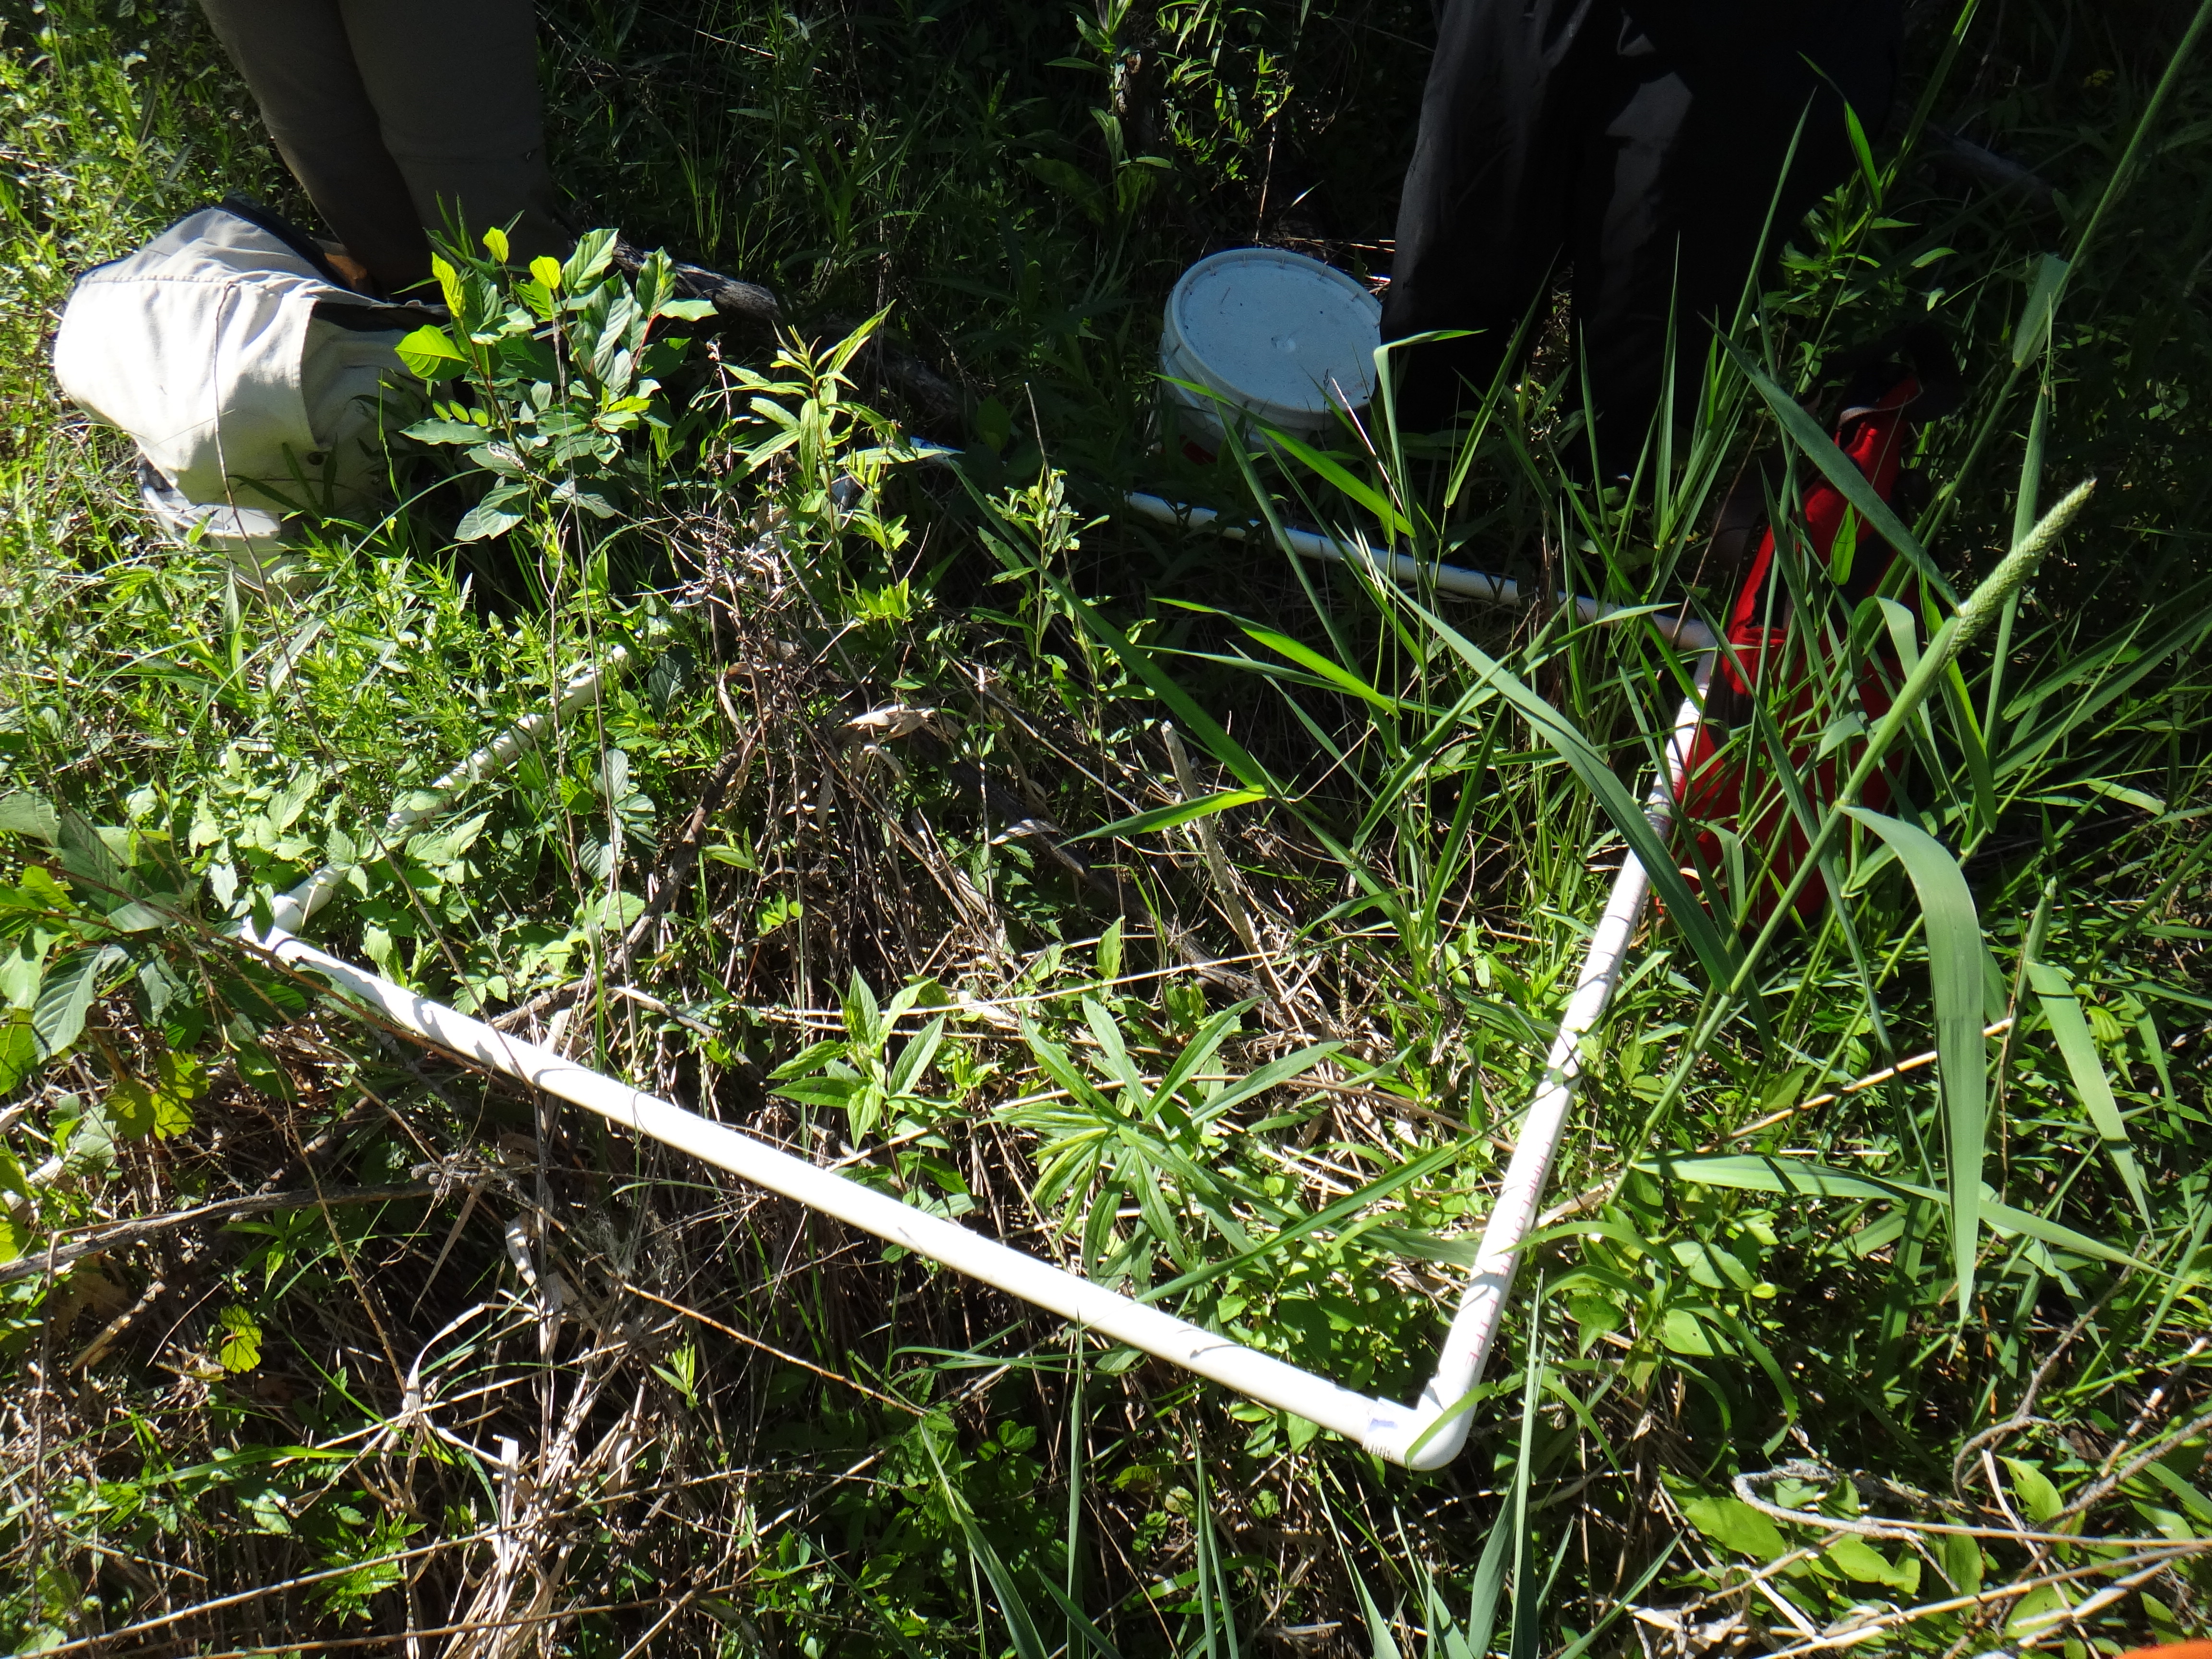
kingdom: Plantae
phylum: Tracheophyta
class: Magnoliopsida
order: Asterales
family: Asteraceae
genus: Symphyotrichum
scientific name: Symphyotrichum firmum
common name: Shining aster
